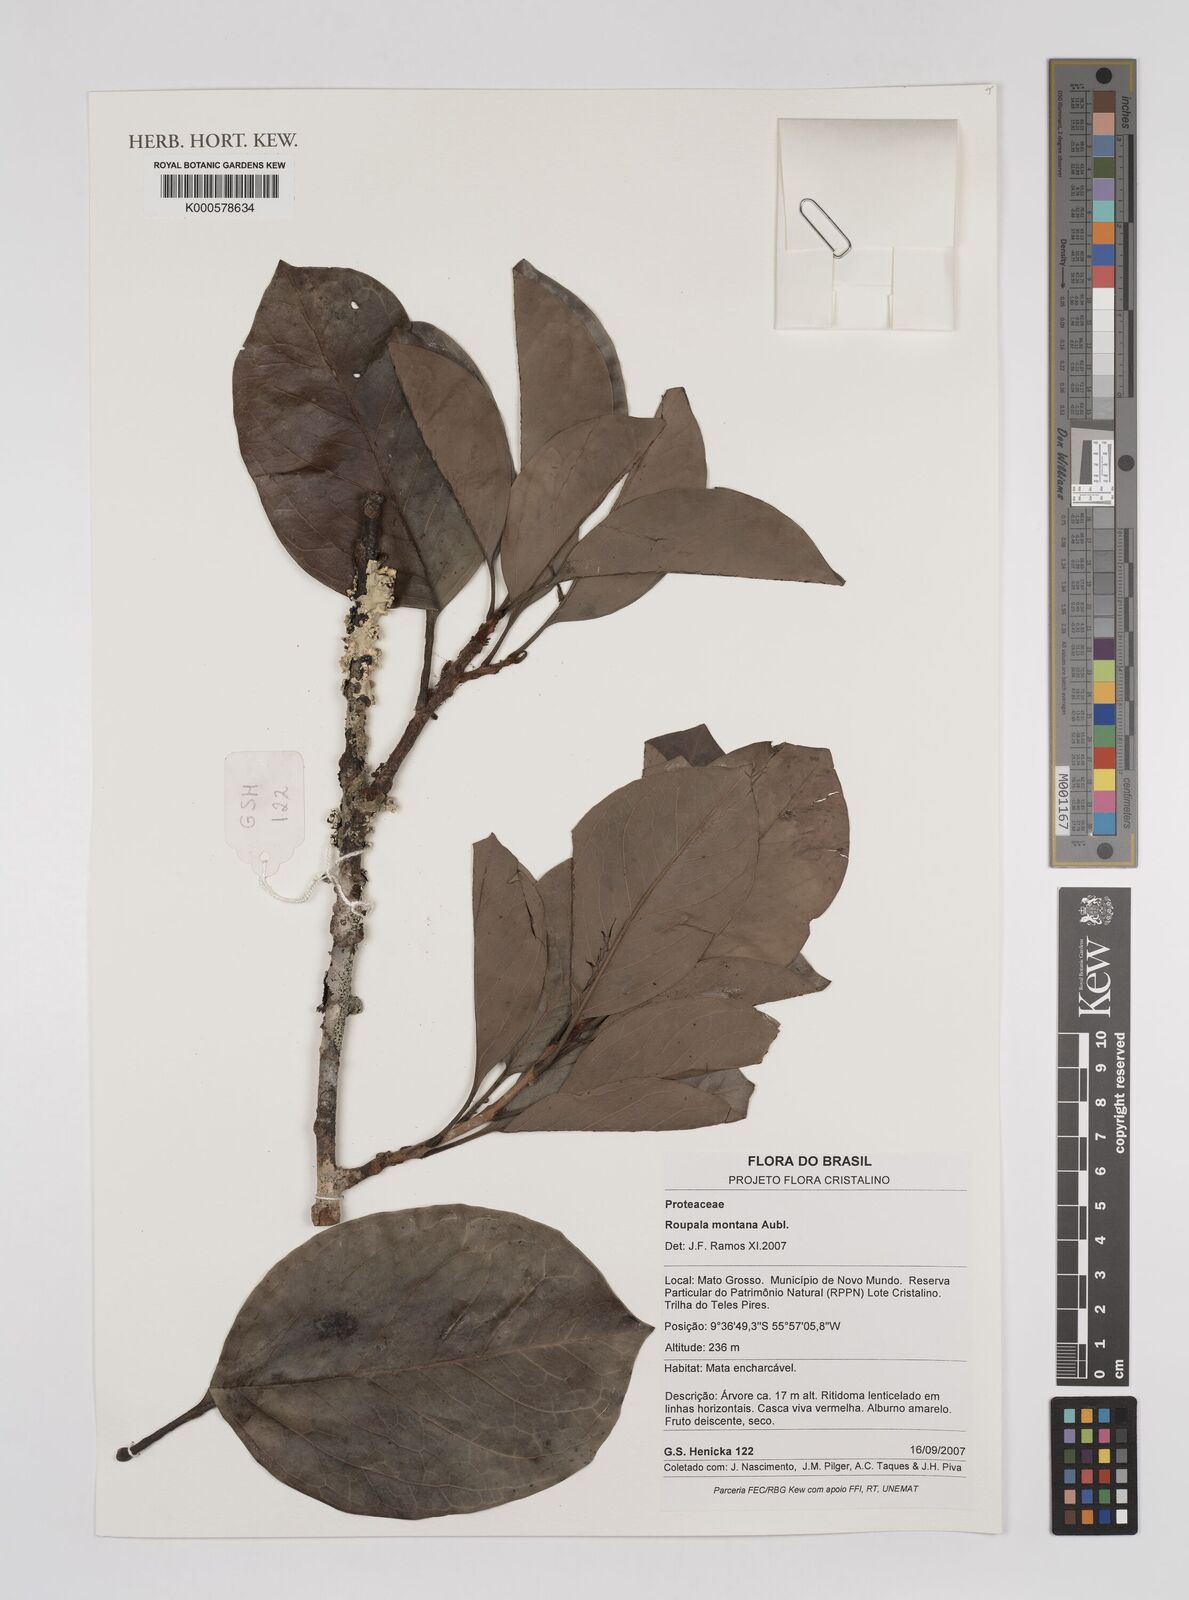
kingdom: Plantae
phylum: Tracheophyta
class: Magnoliopsida
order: Proteales
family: Proteaceae
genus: Roupala
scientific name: Roupala montana
